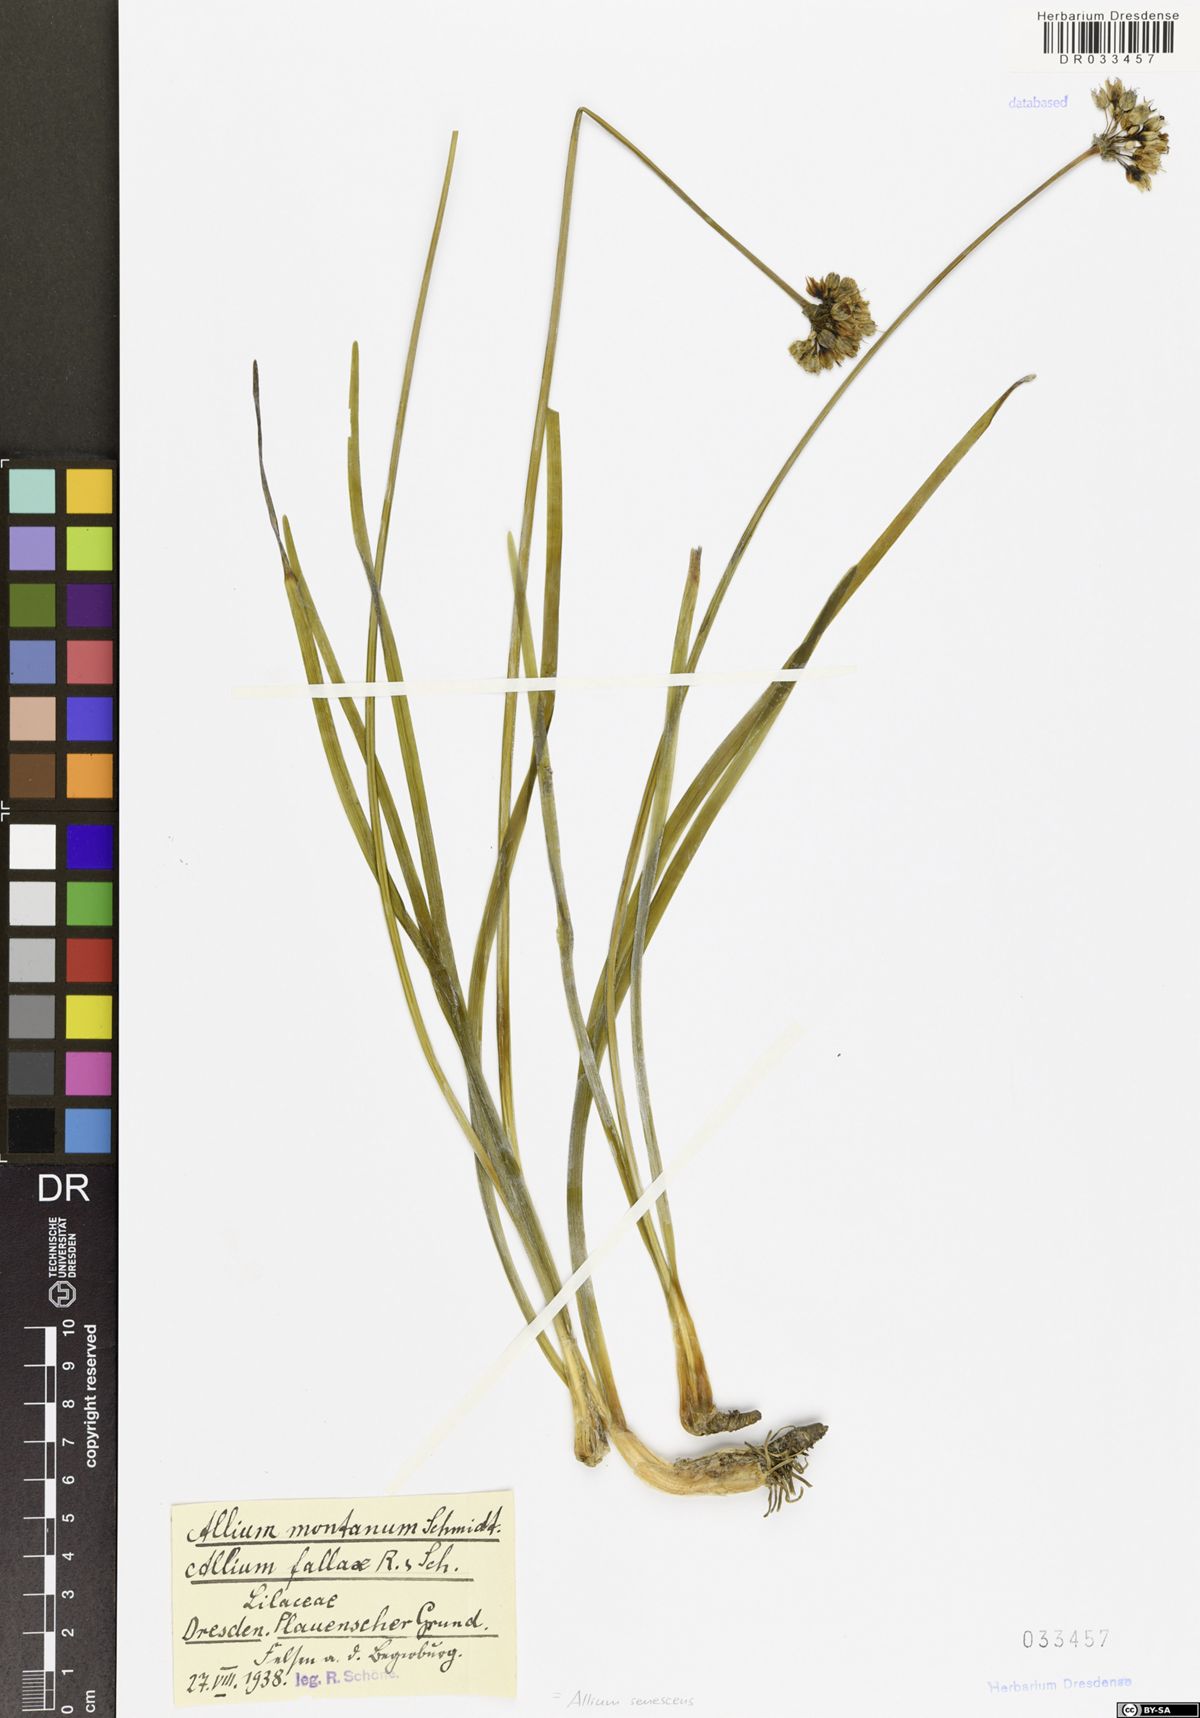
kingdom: Plantae
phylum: Tracheophyta
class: Liliopsida
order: Asparagales
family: Amaryllidaceae
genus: Allium
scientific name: Allium senescens
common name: German garlic
